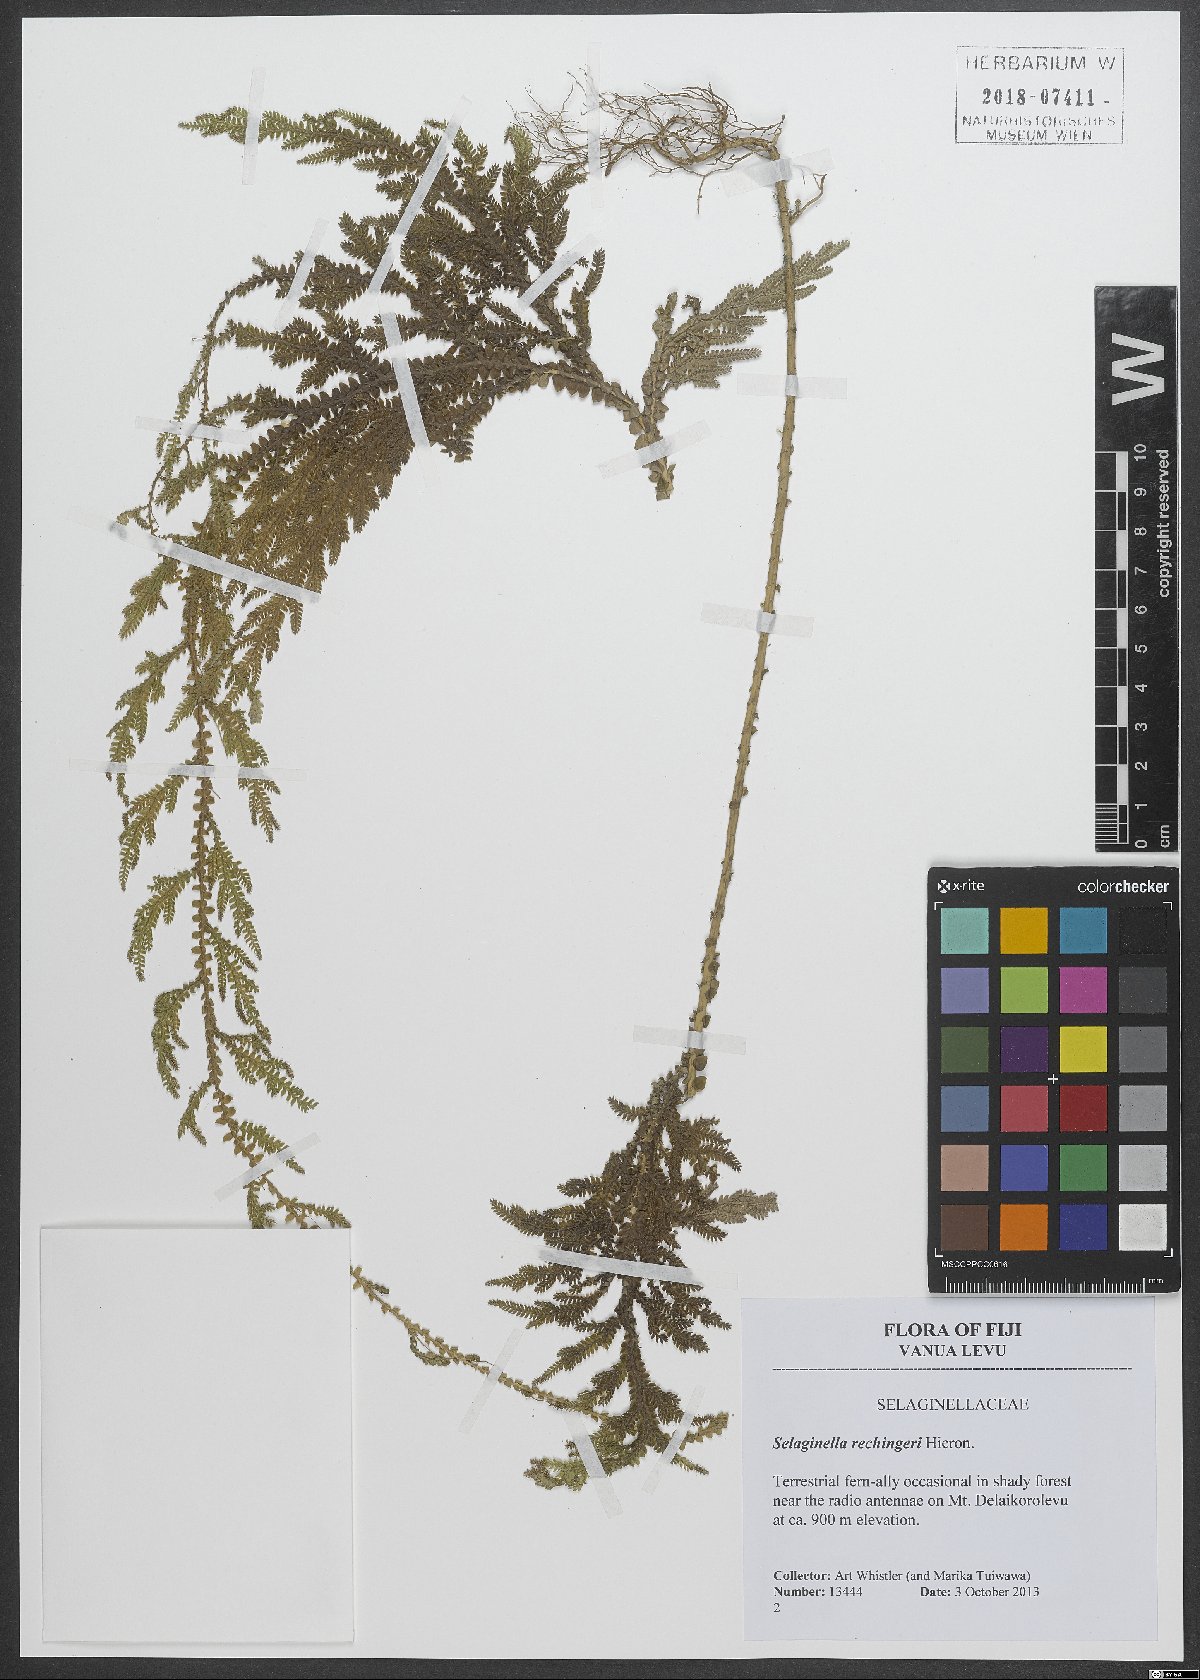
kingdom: Plantae
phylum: Tracheophyta
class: Lycopodiopsida
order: Selaginellales
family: Selaginellaceae
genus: Selaginella
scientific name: Selaginella rechingeri
